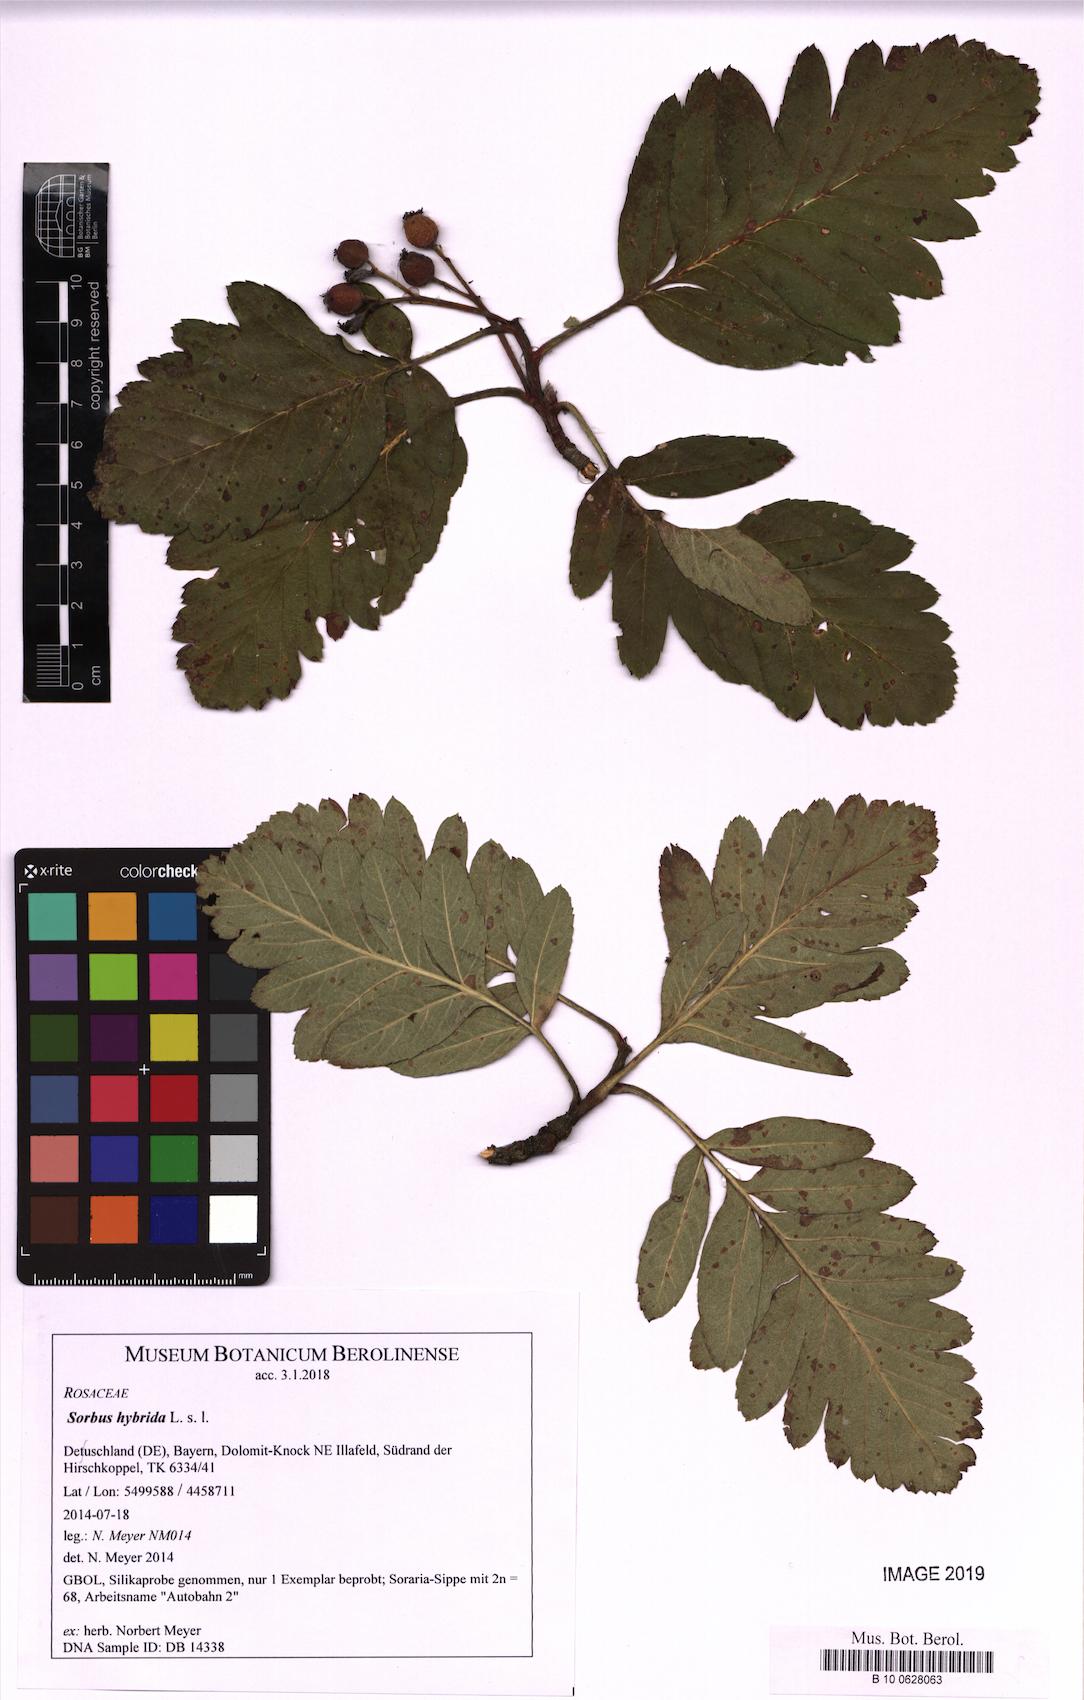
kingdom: Plantae
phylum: Tracheophyta
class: Magnoliopsida
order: Rosales
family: Rosaceae
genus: Hedlundia
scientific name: Hedlundia hybrida
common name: Swedish service-tree
